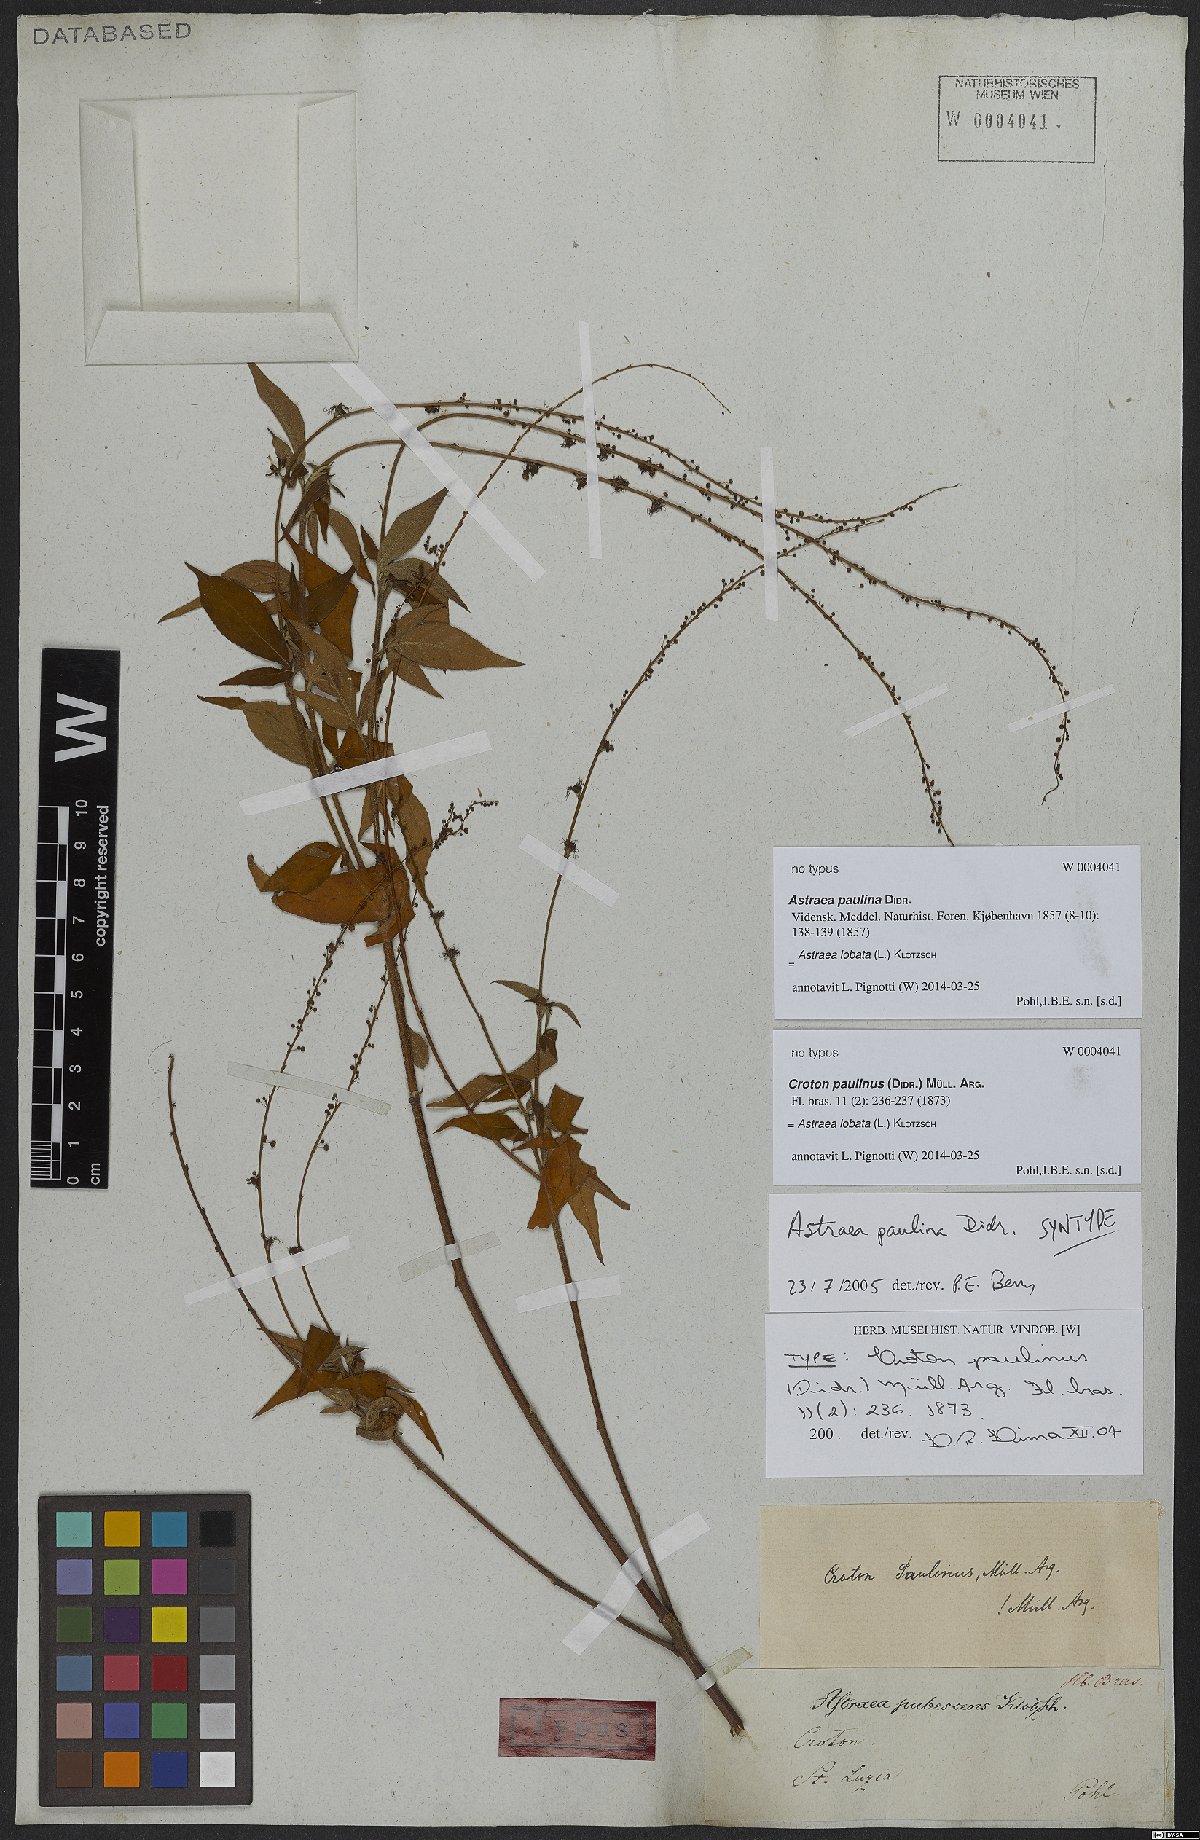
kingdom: Plantae
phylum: Tracheophyta
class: Magnoliopsida
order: Malpighiales
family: Euphorbiaceae
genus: Astraea
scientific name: Astraea lobata
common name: Lobed croton
